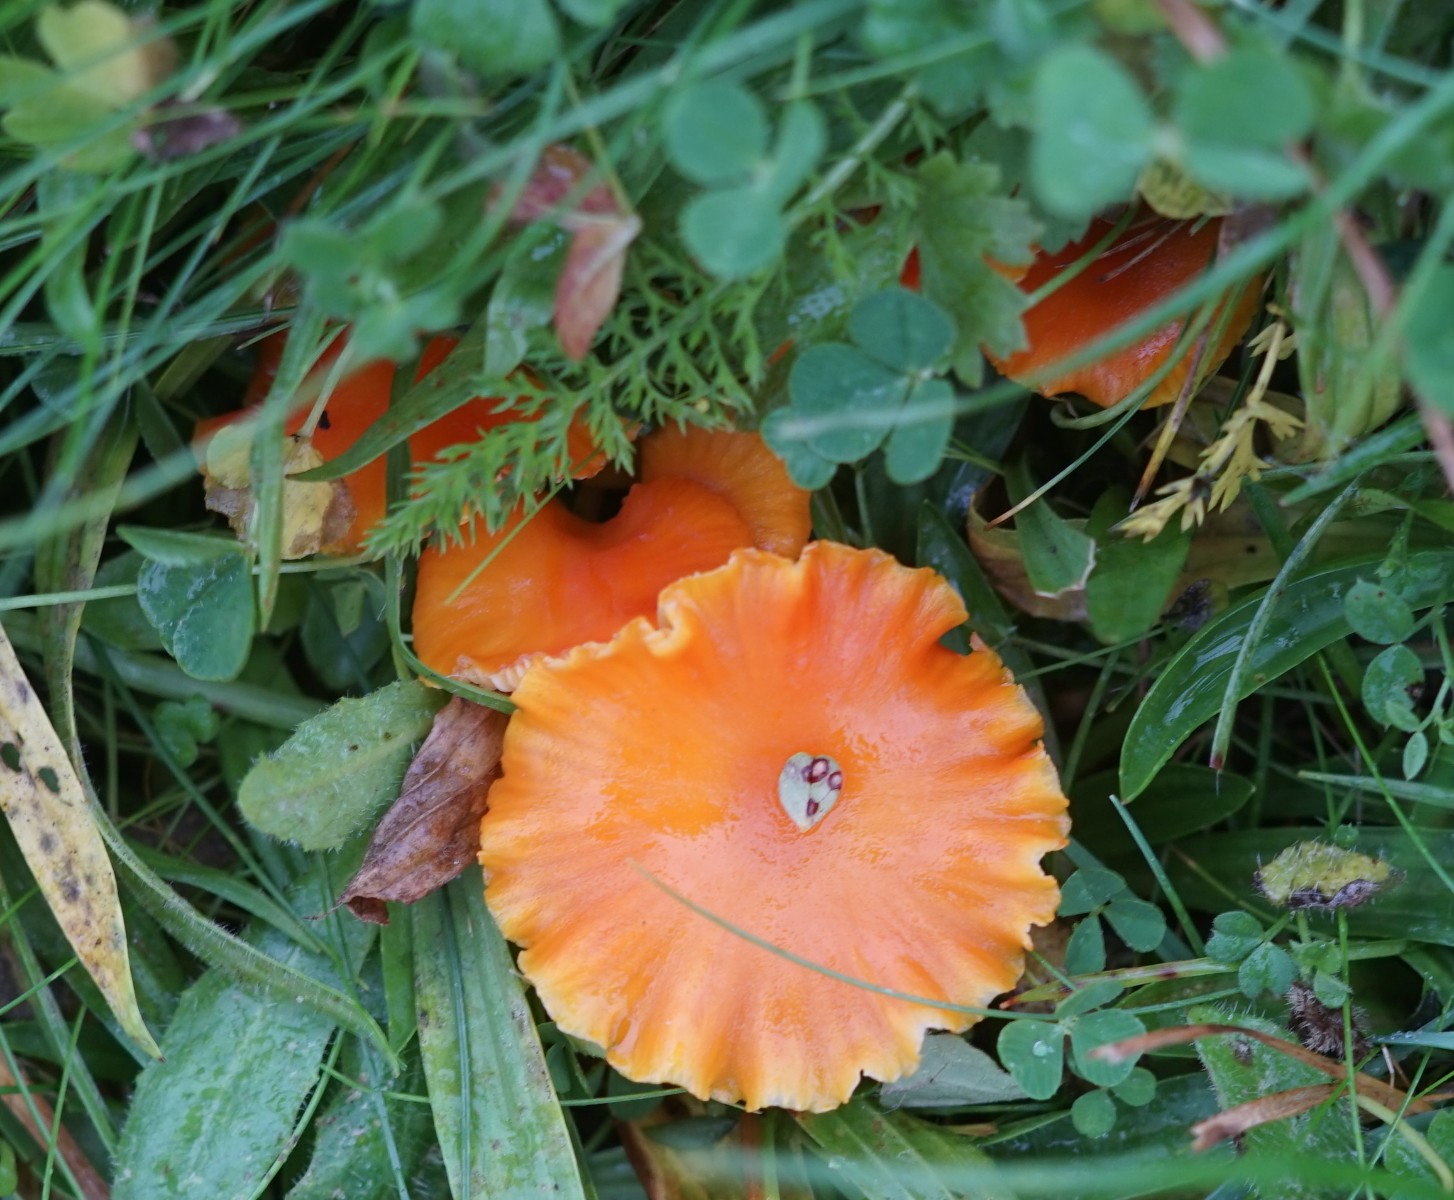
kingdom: Fungi
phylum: Basidiomycota
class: Agaricomycetes
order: Agaricales
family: Hygrophoraceae
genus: Hygrocybe
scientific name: Hygrocybe reidii
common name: honning-vokshat
